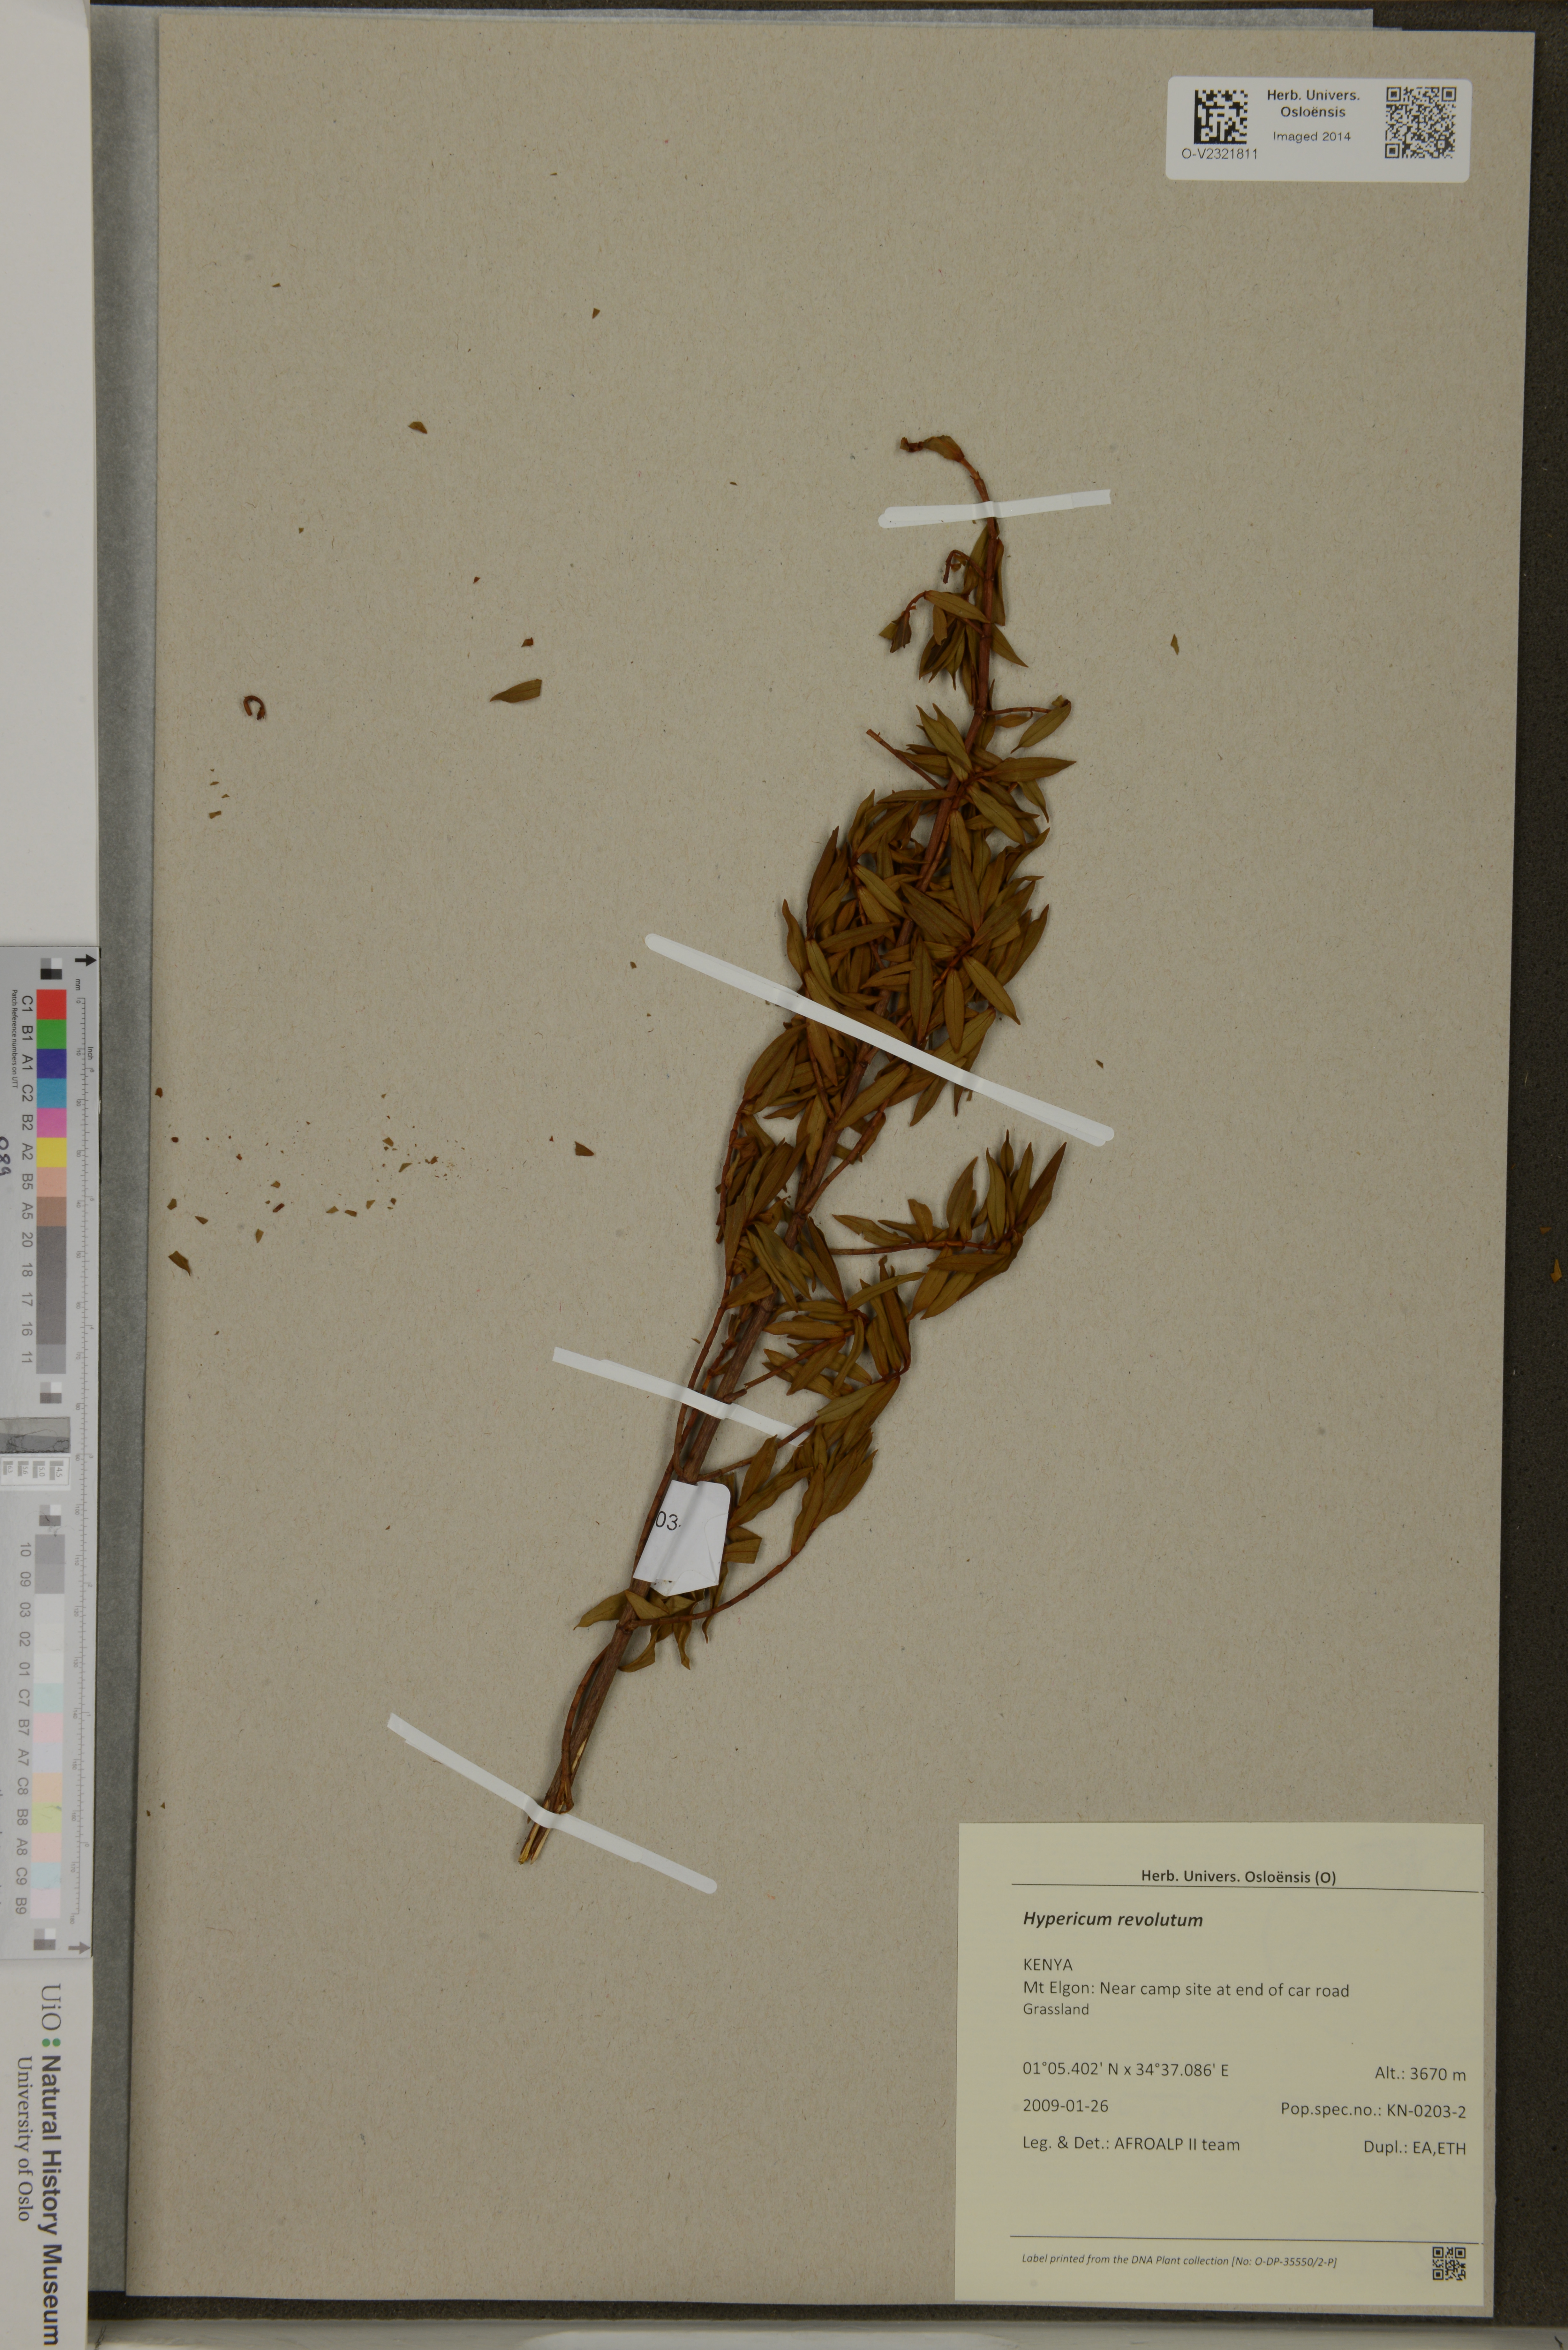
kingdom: Plantae
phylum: Tracheophyta
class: Magnoliopsida
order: Malpighiales
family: Hypericaceae
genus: Hypericum
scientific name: Hypericum revolutum
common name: Curry bush
